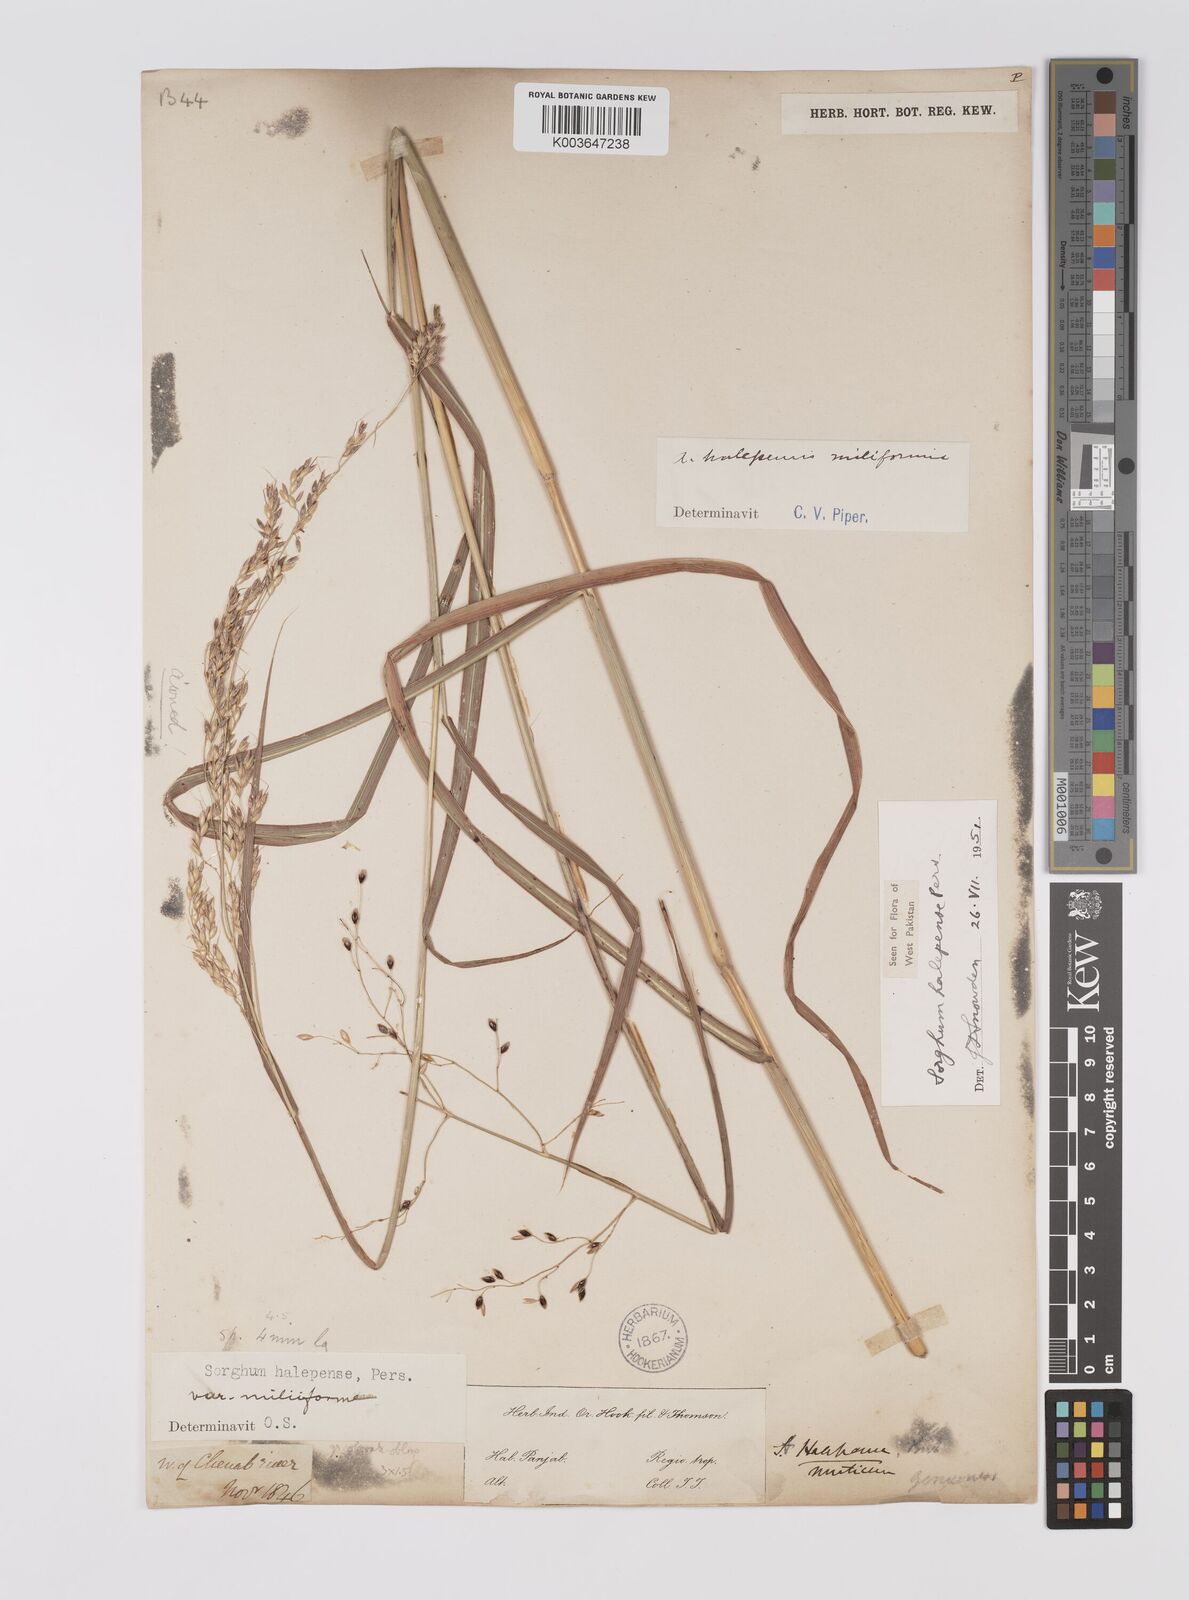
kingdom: Plantae
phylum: Tracheophyta
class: Liliopsida
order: Poales
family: Poaceae
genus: Sorghum
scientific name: Sorghum halepense
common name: Johnson-grass
